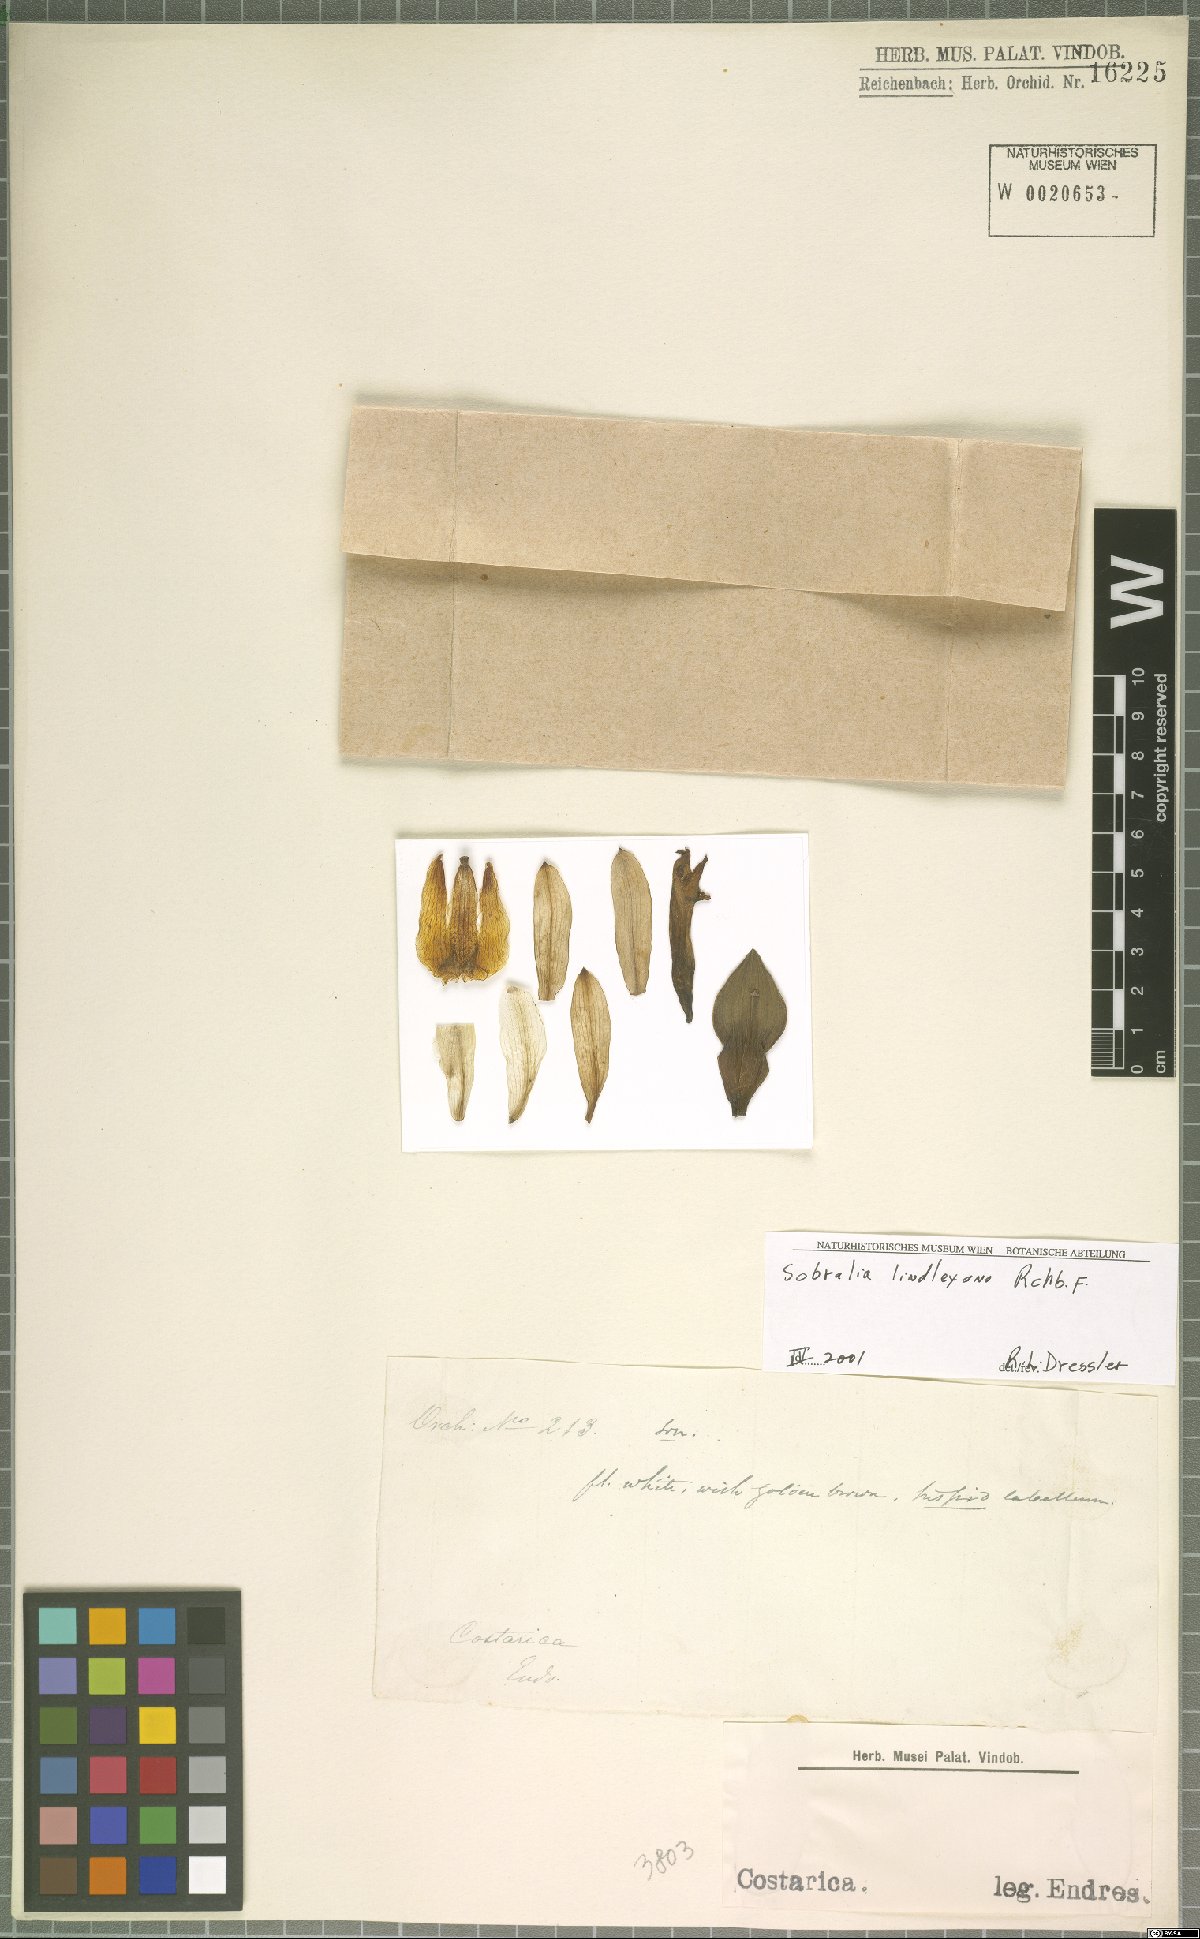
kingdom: Plantae
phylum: Tracheophyta
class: Liliopsida
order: Asparagales
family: Orchidaceae
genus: Sobralia
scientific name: Sobralia lindleyana
